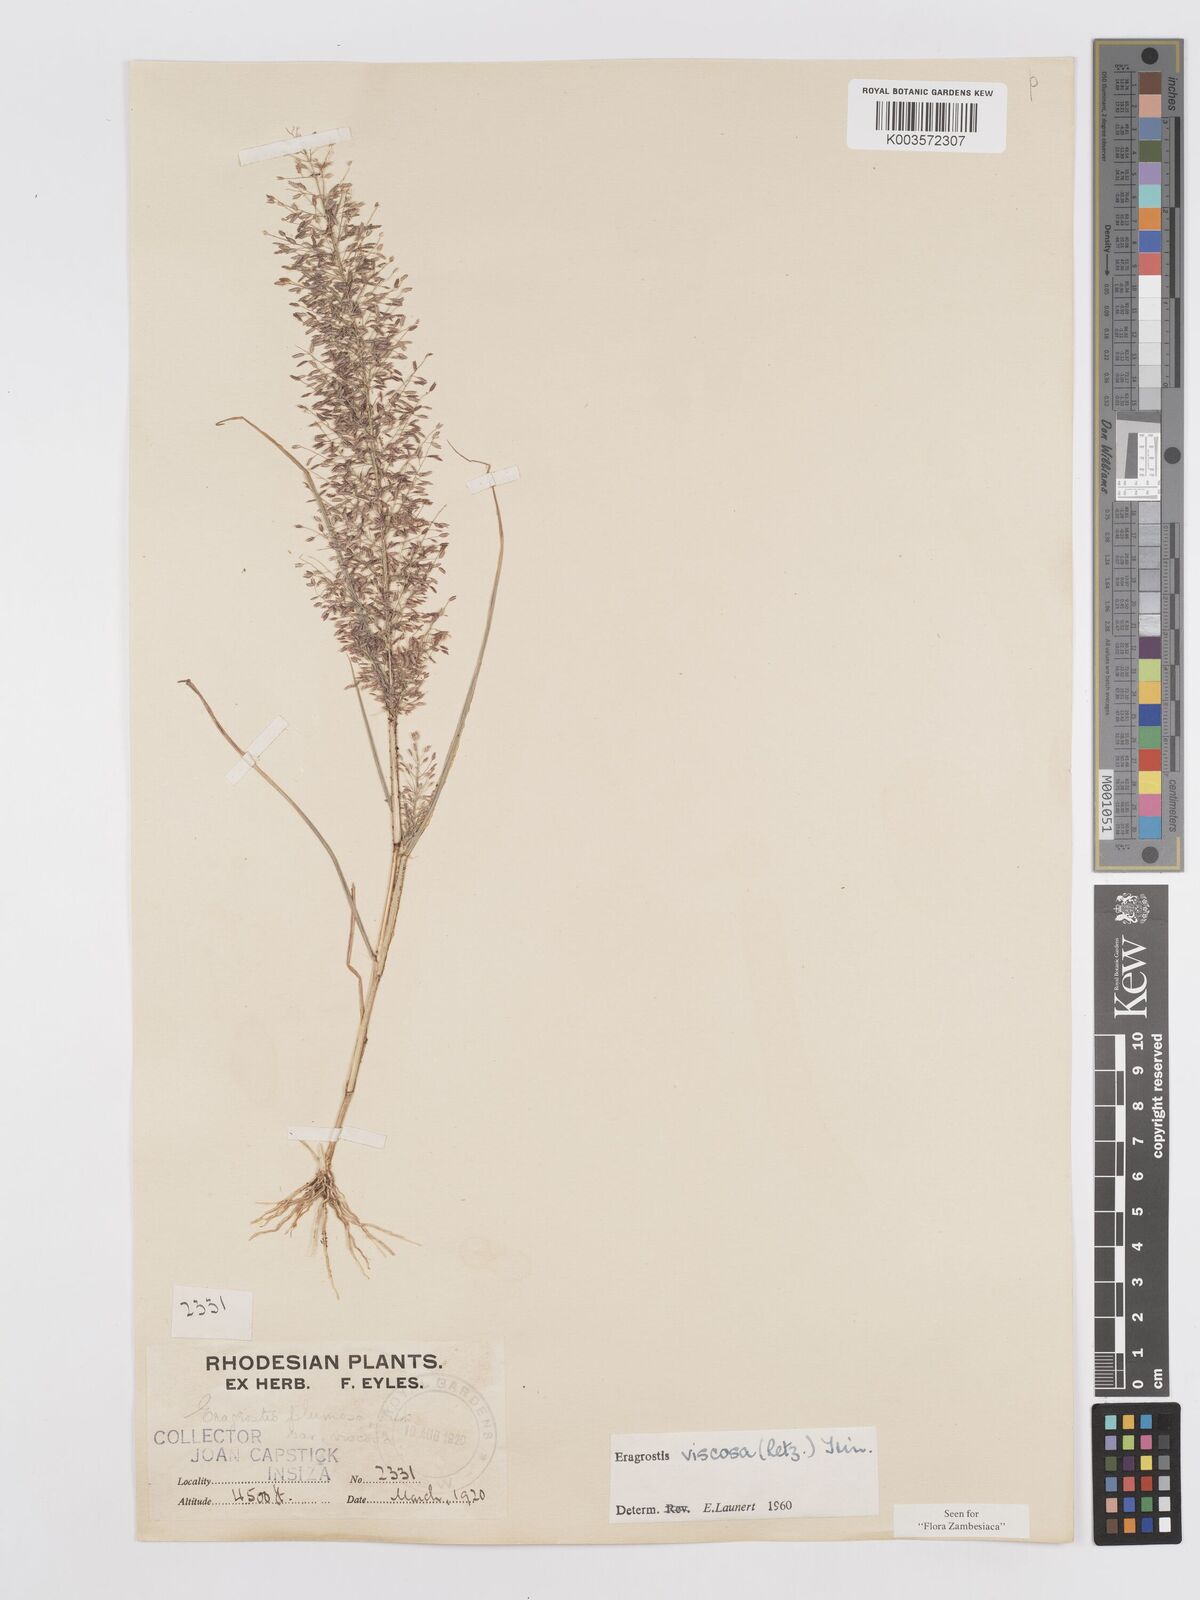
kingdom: Plantae
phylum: Tracheophyta
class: Liliopsida
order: Poales
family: Poaceae
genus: Eragrostis
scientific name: Eragrostis
